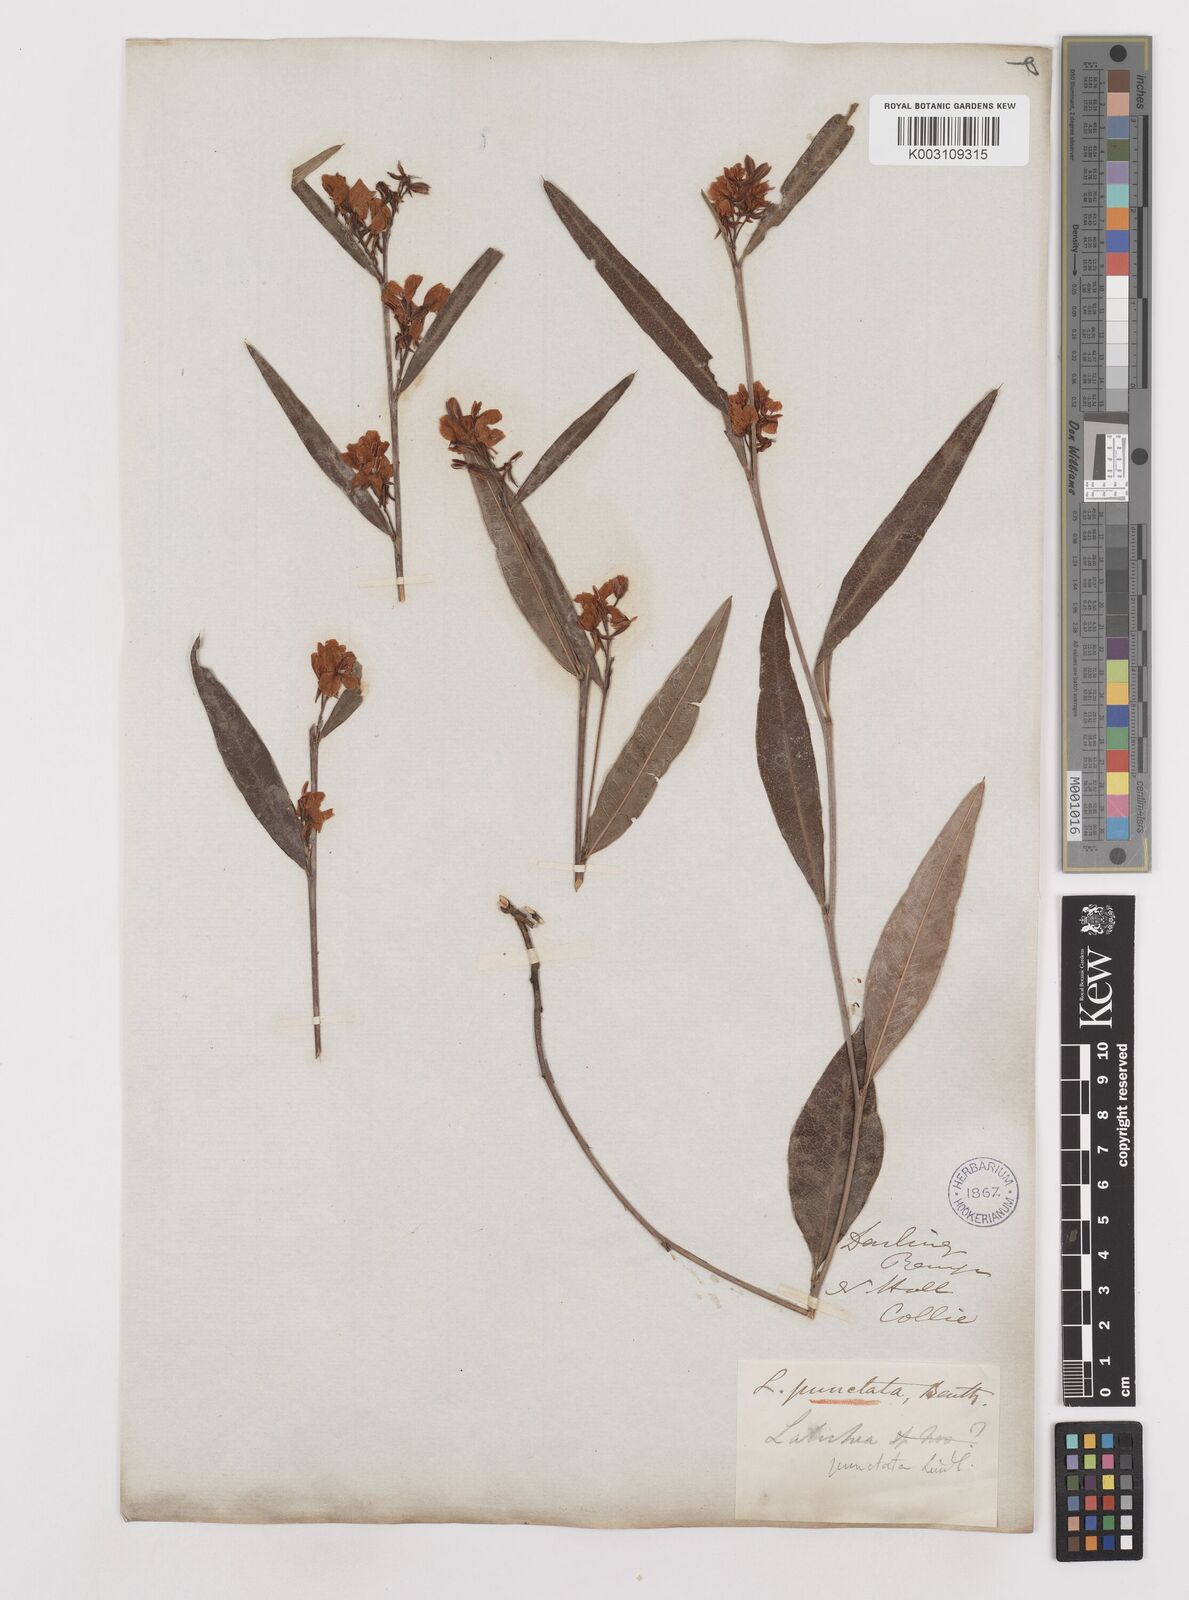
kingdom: Plantae
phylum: Tracheophyta
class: Magnoliopsida
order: Fabales
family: Fabaceae
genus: Labichea
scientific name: Labichea punctata
